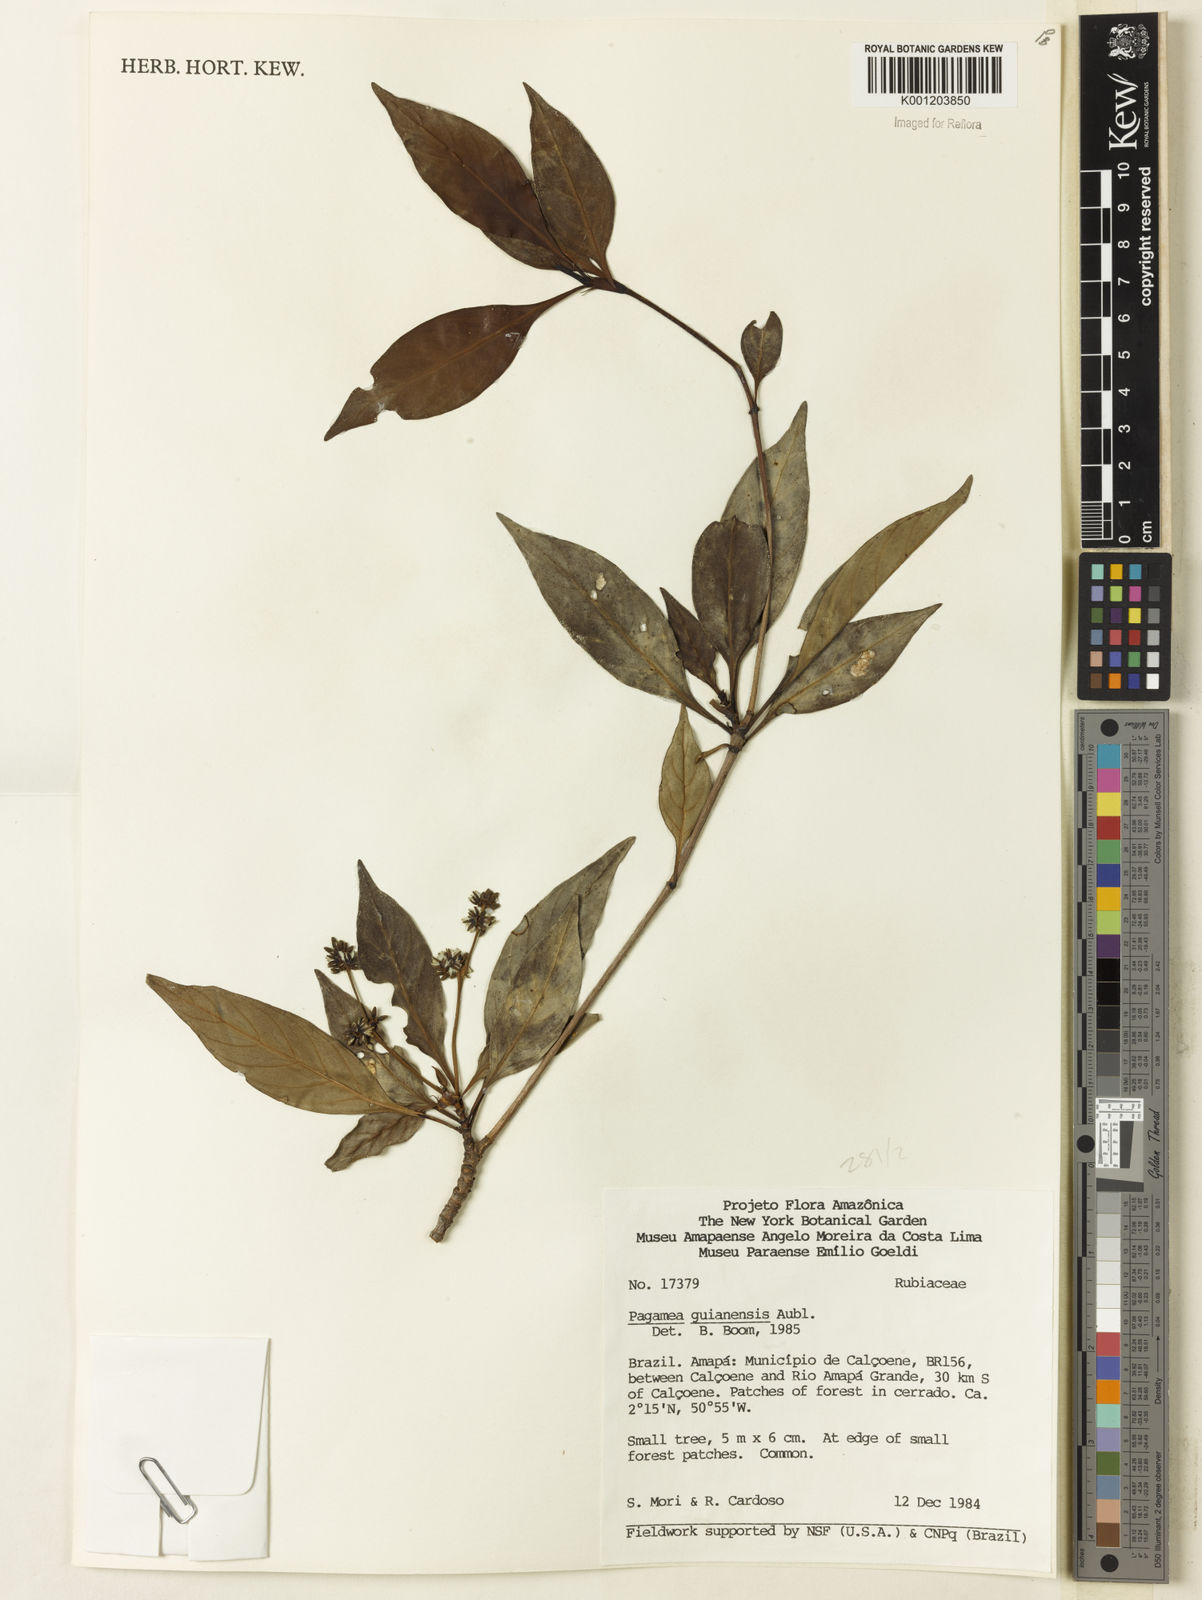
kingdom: Plantae
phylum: Tracheophyta
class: Magnoliopsida
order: Gentianales
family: Rubiaceae
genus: Pagamea
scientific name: Pagamea guianensis
